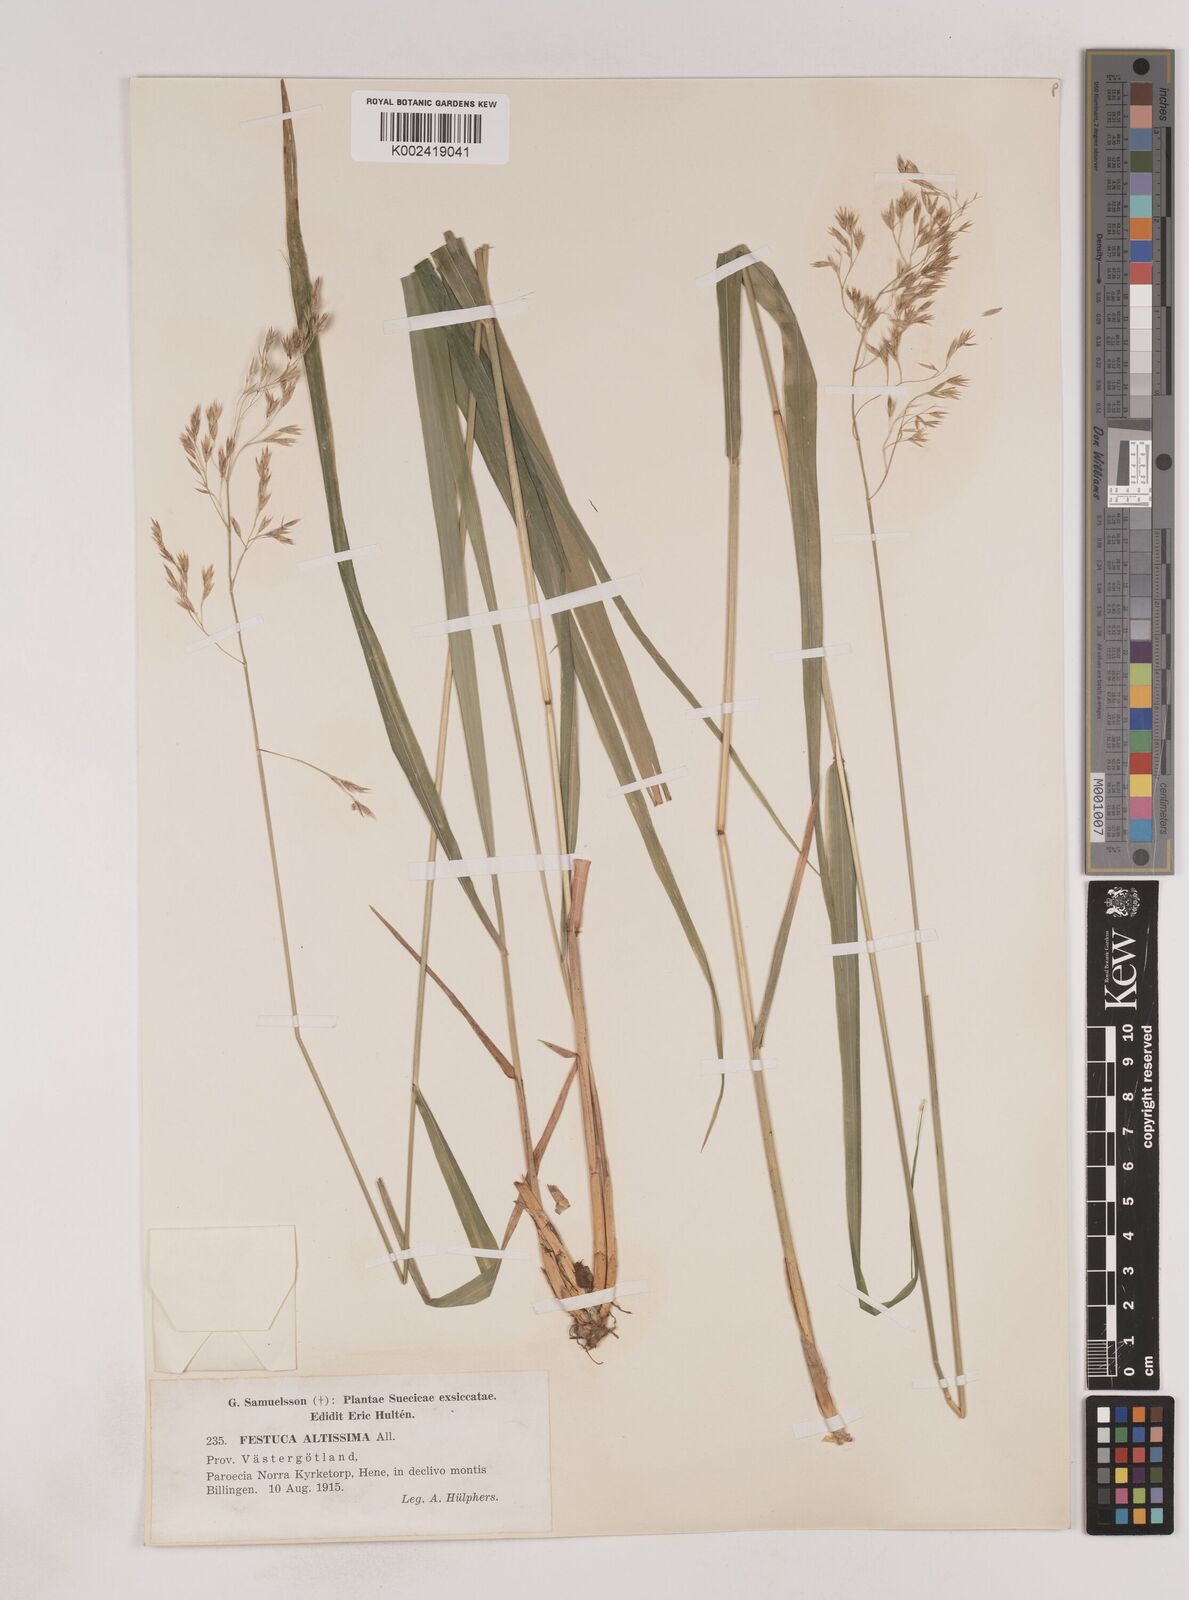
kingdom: Plantae
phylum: Tracheophyta
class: Liliopsida
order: Poales
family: Poaceae
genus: Festuca
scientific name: Festuca drymeja
